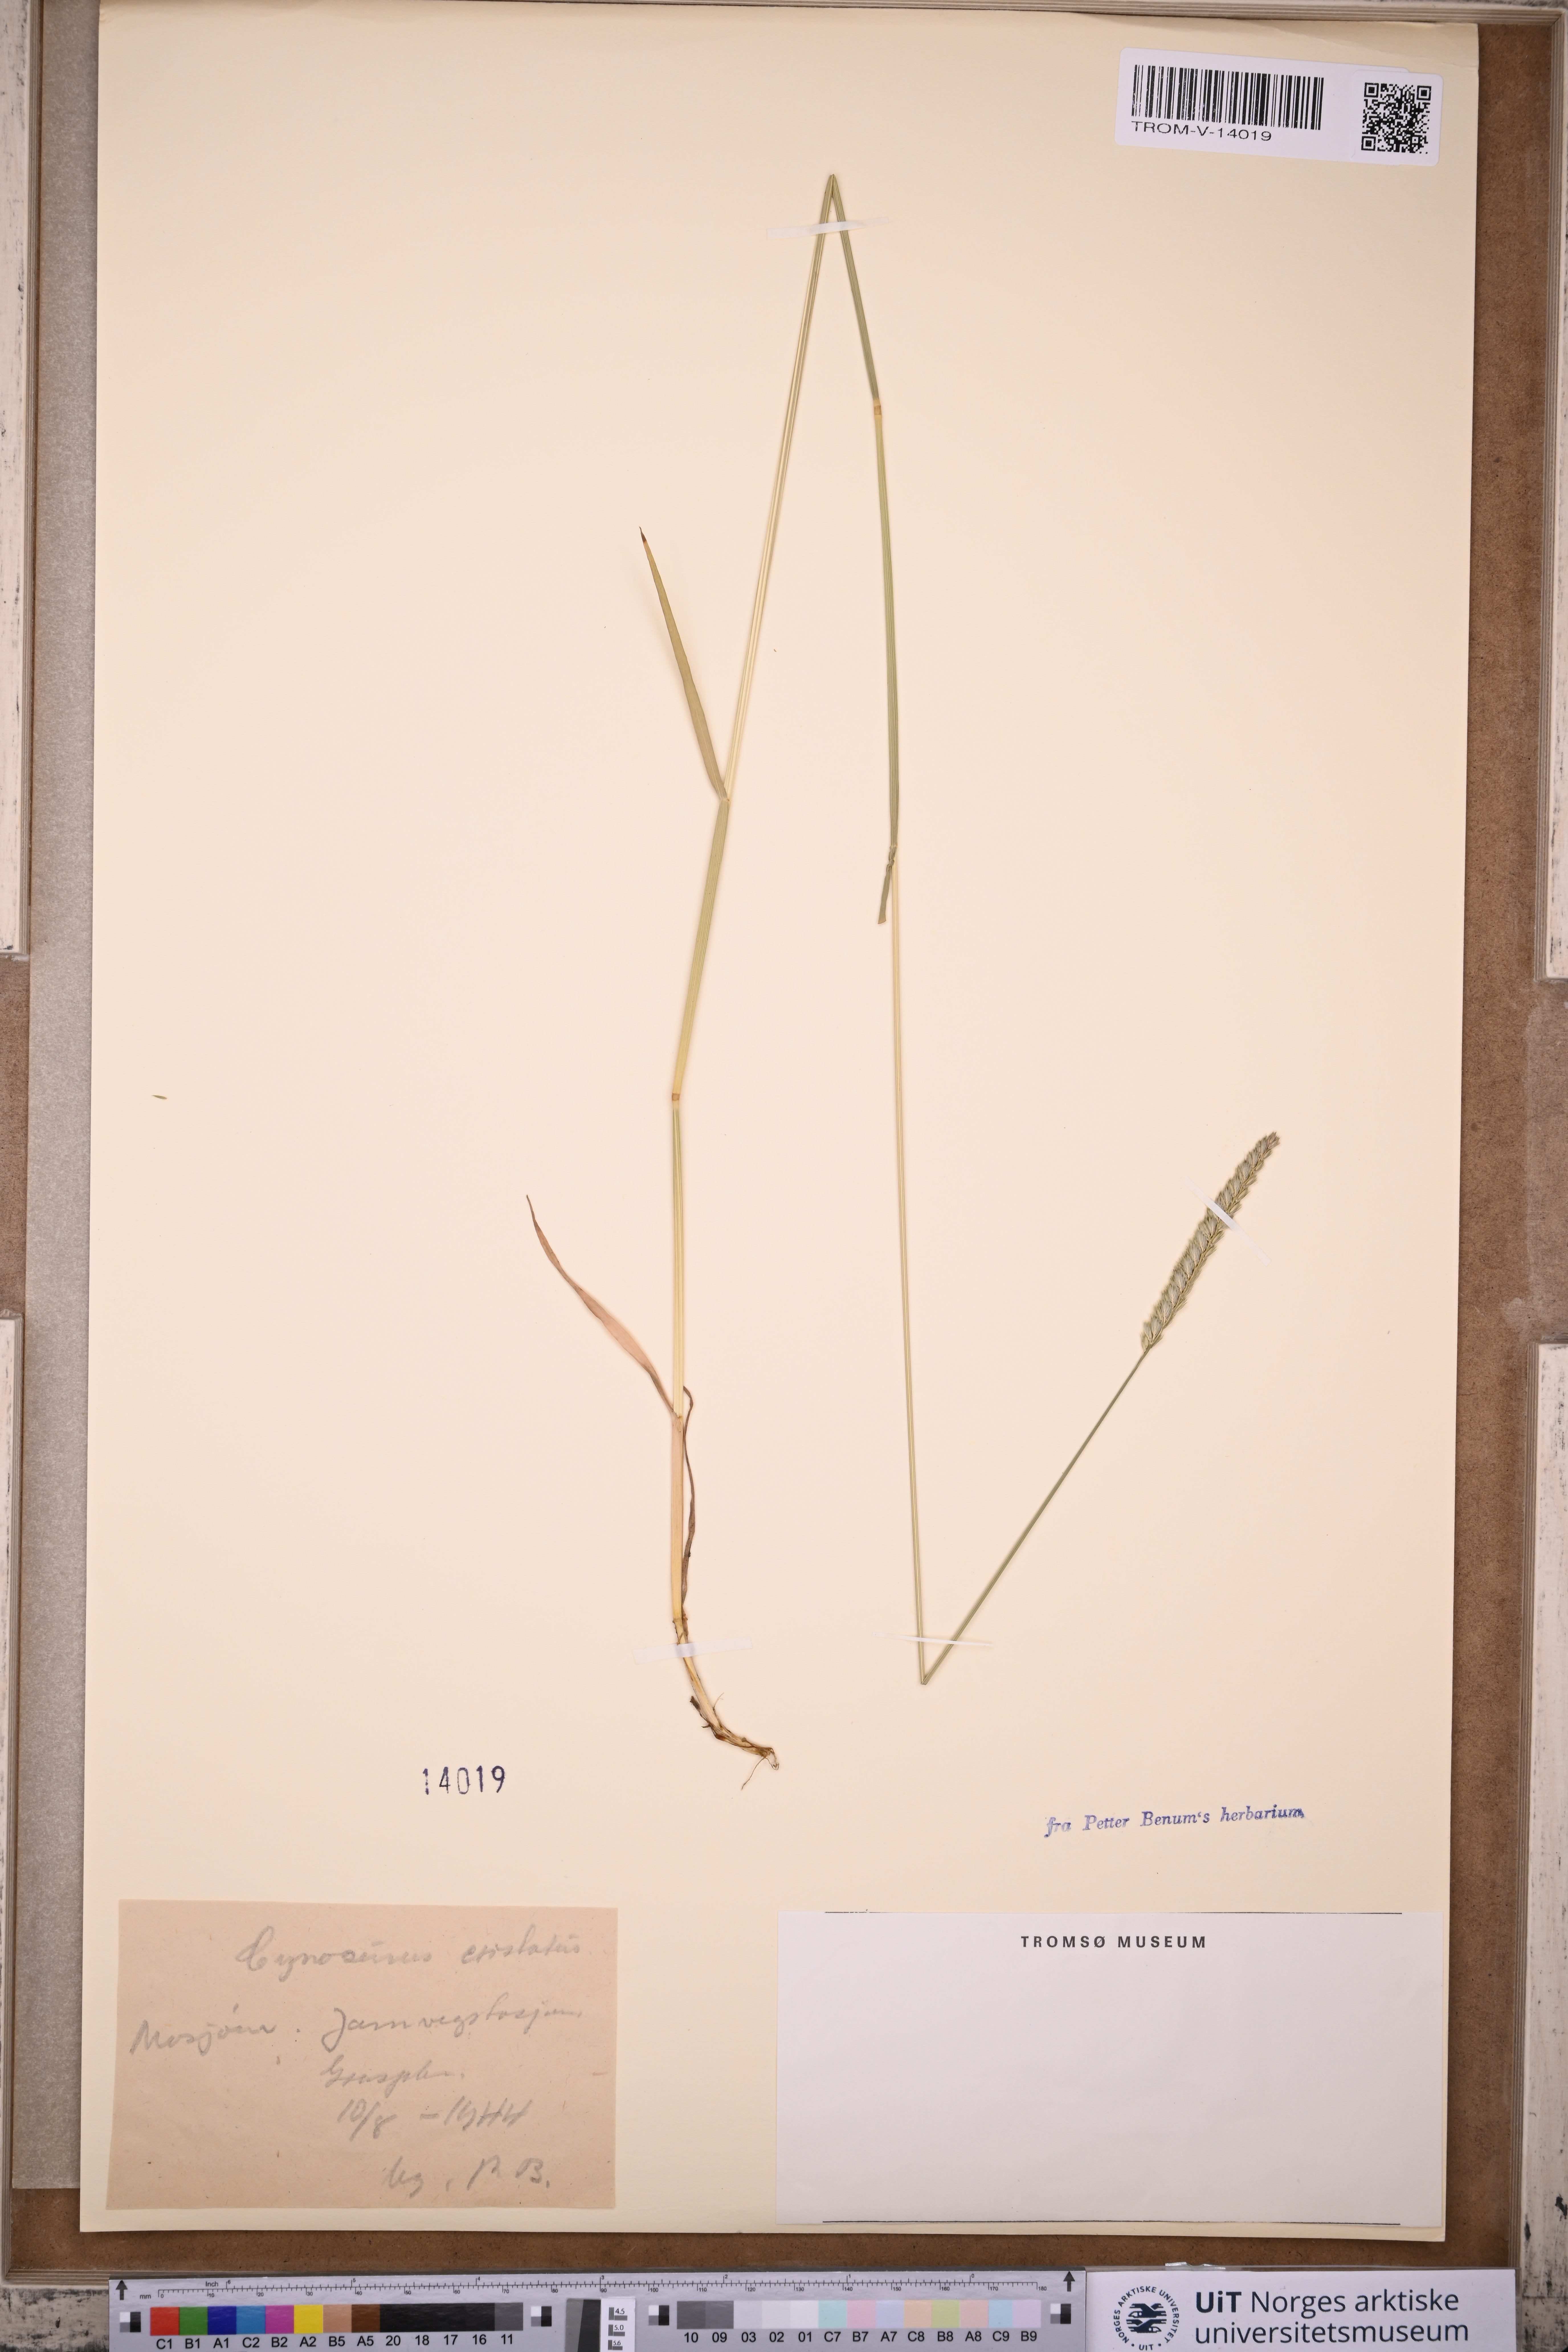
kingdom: Plantae
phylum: Tracheophyta
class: Liliopsida
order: Poales
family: Poaceae
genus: Cynosurus
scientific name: Cynosurus cristatus
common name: Crested dog's-tail
